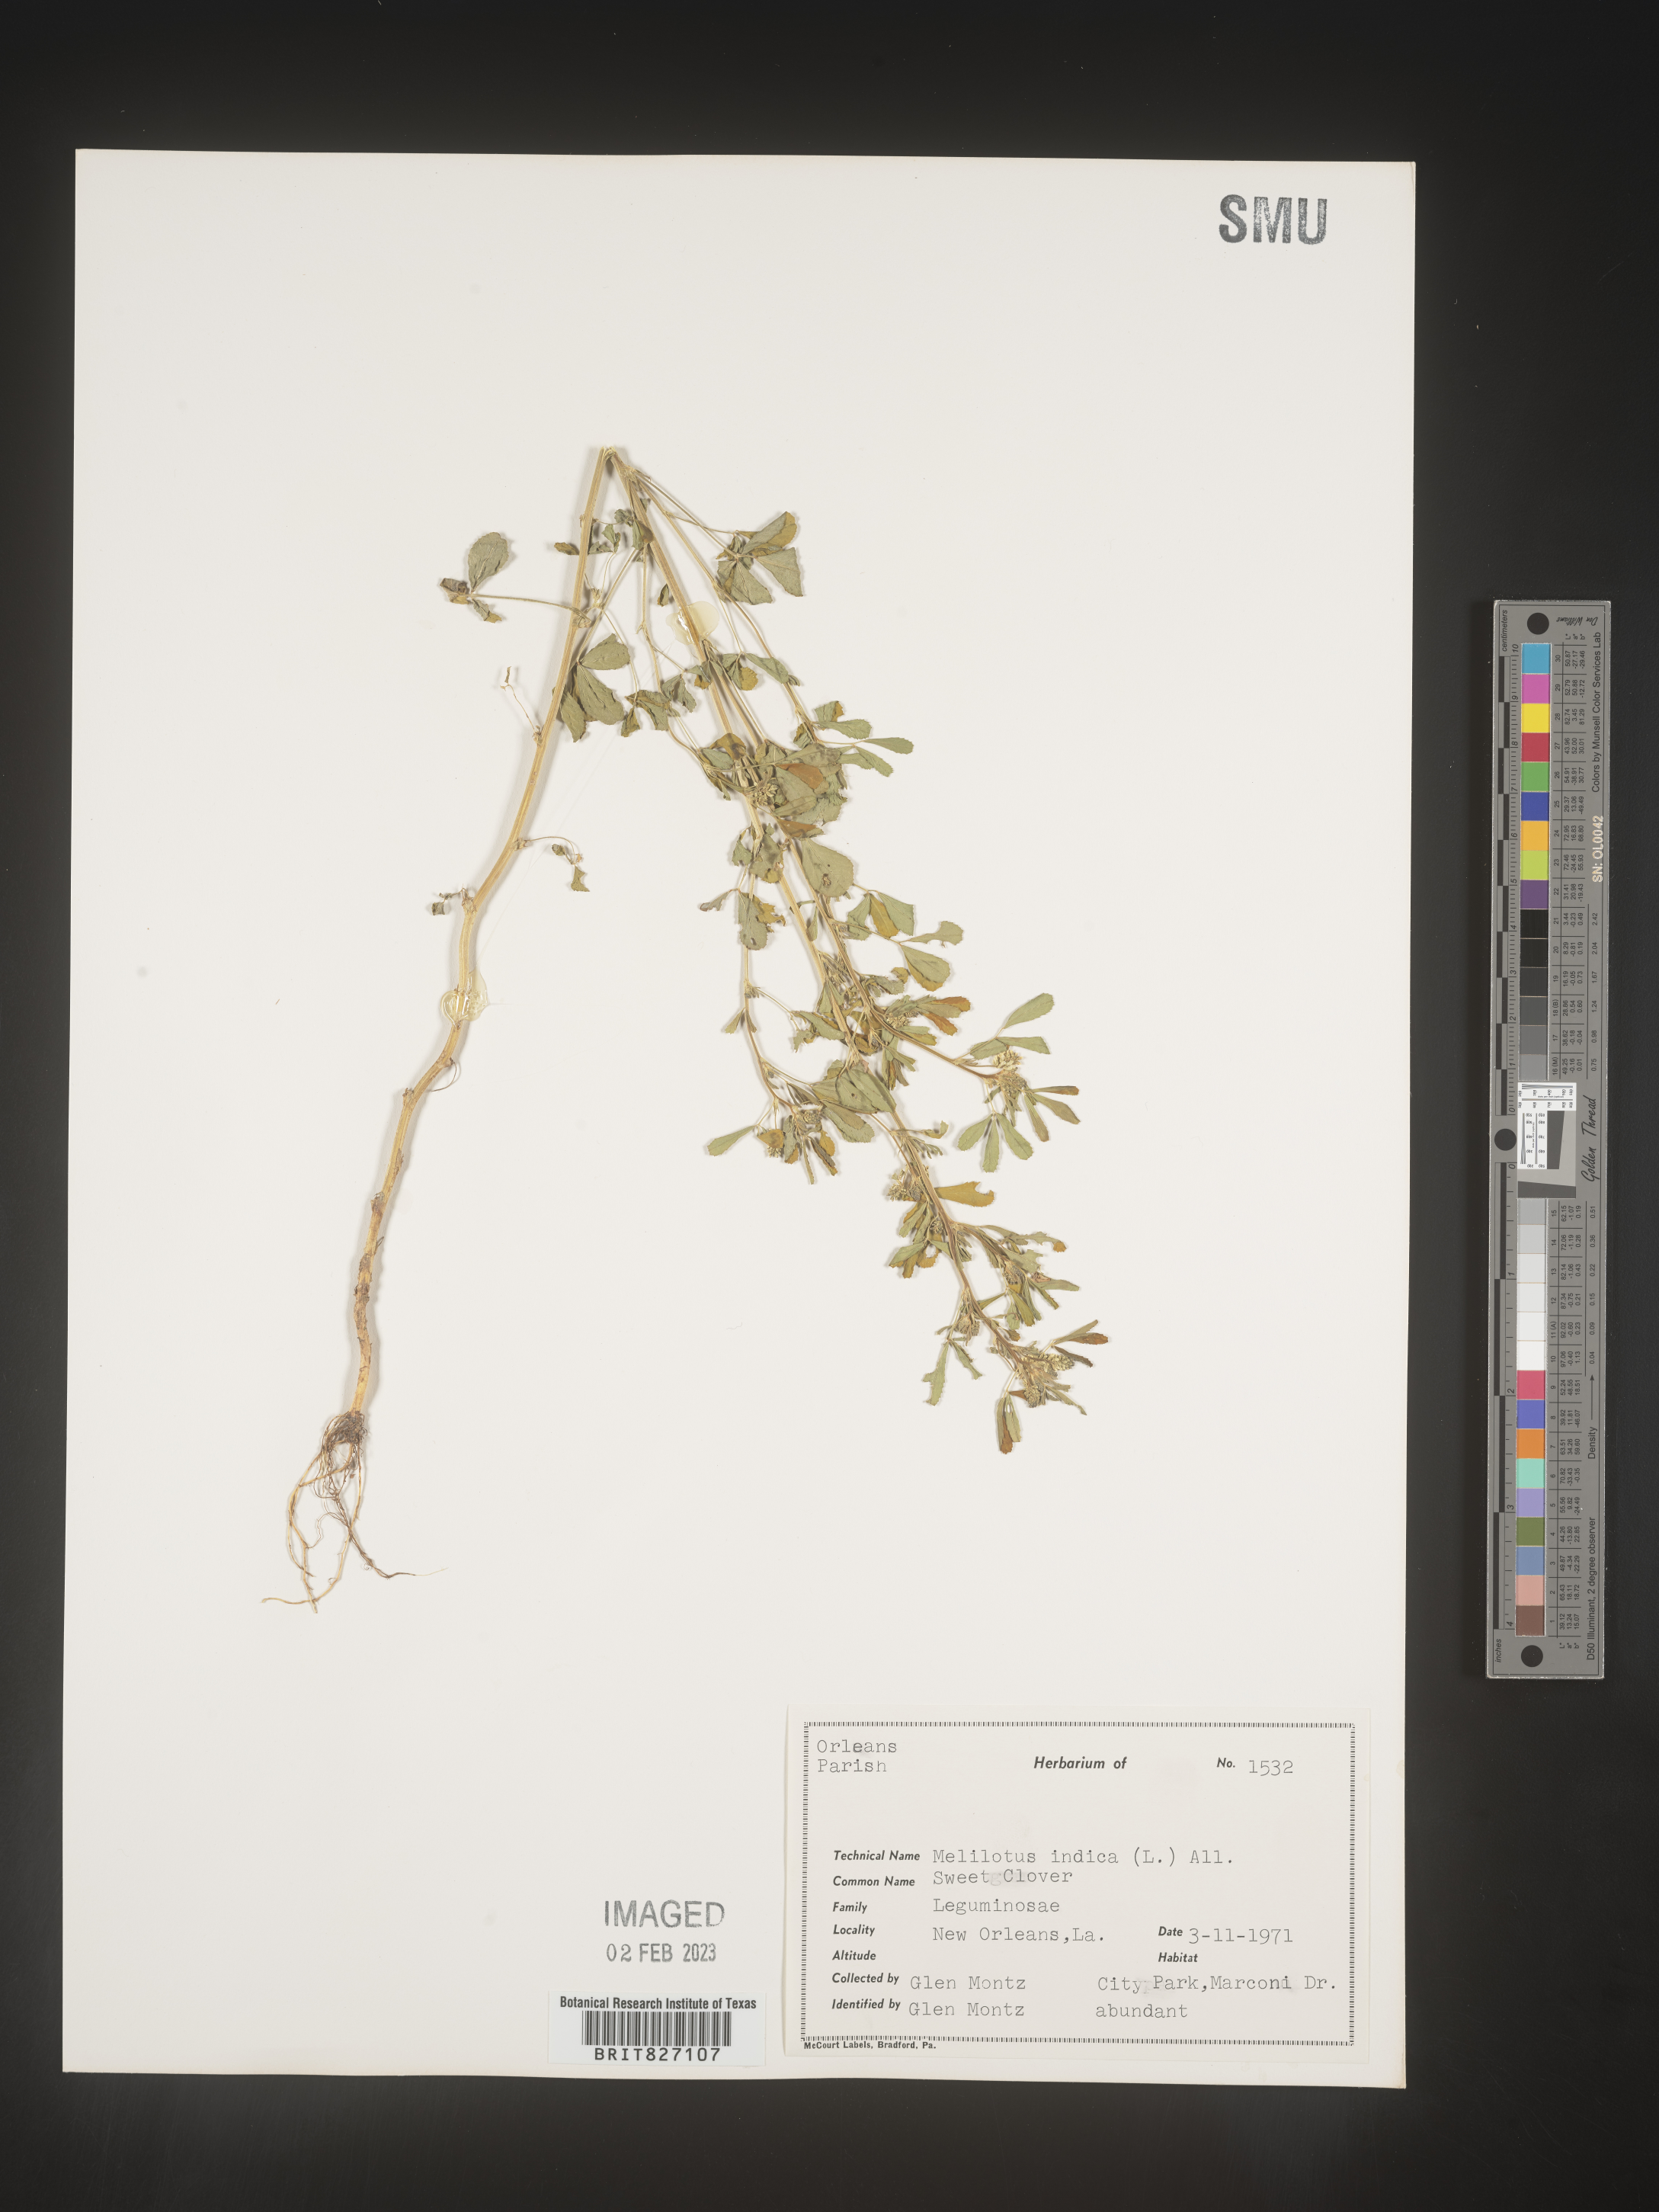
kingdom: Plantae
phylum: Tracheophyta
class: Magnoliopsida
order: Fabales
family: Fabaceae
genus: Melilotus
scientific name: Melilotus indicus
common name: Small melilot
